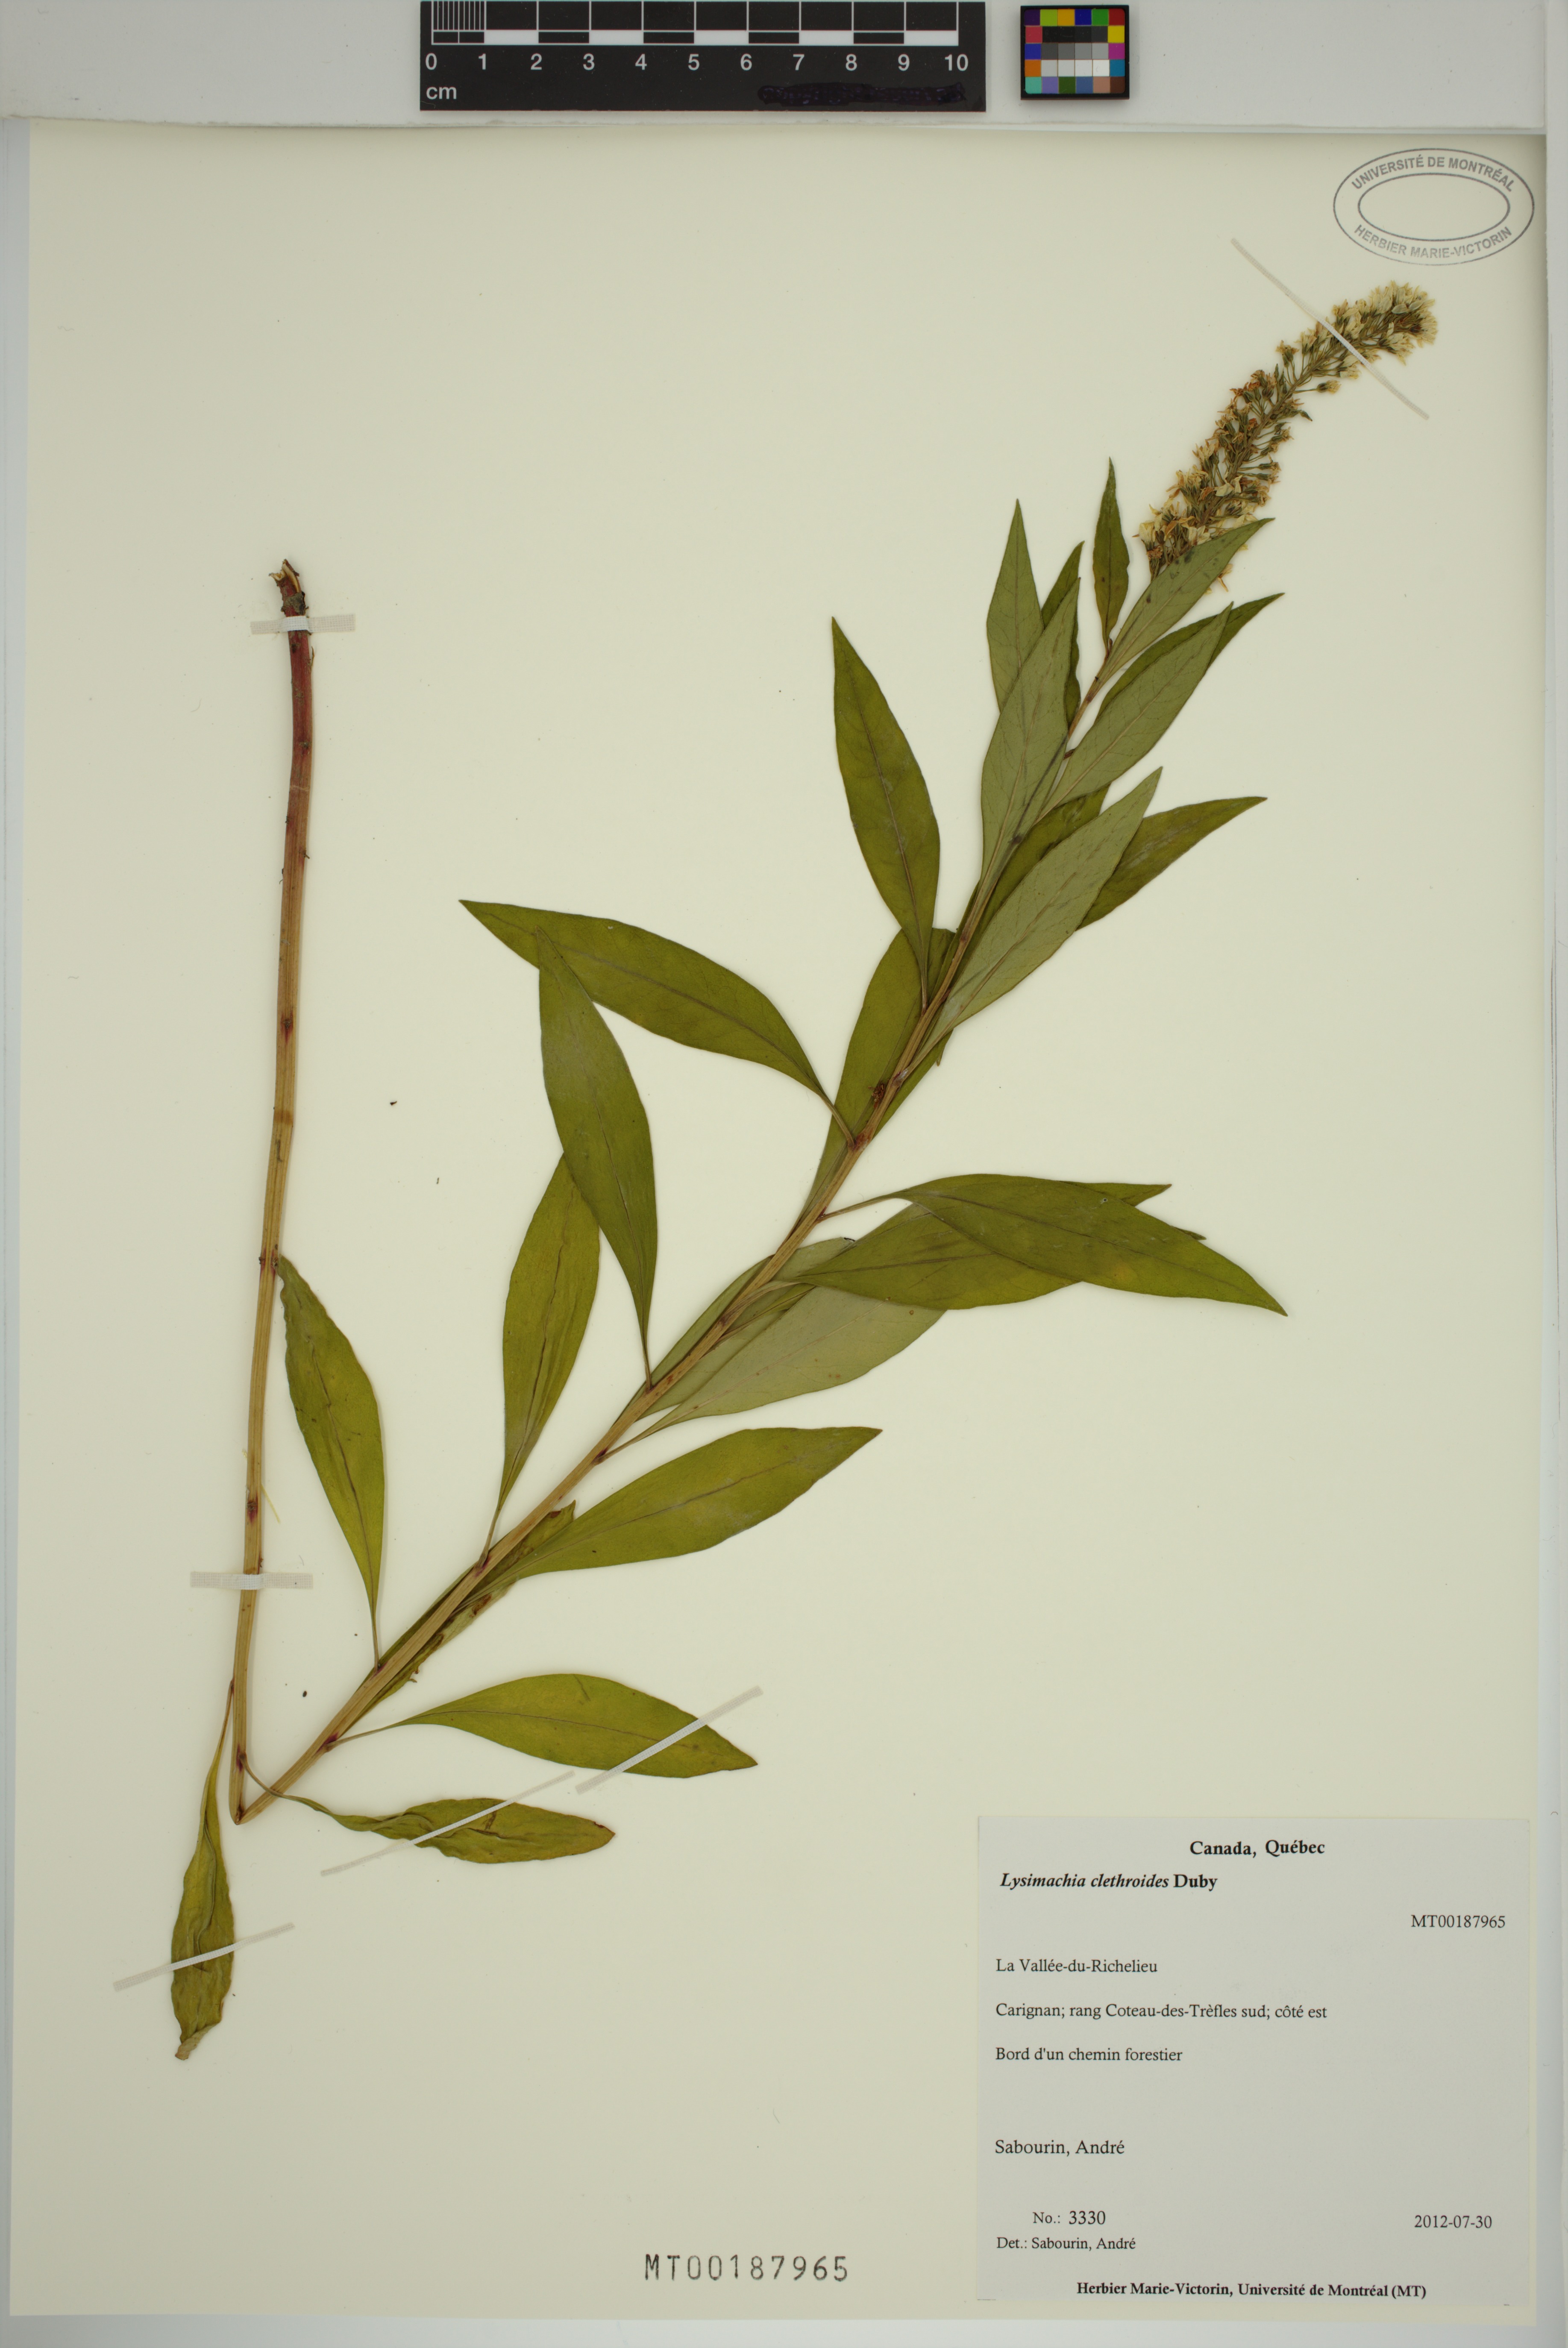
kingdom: Plantae
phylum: Tracheophyta
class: Magnoliopsida
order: Ericales
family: Primulaceae
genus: Lysimachia
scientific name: Lysimachia clethroides
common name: Gooseneck loosestrife
